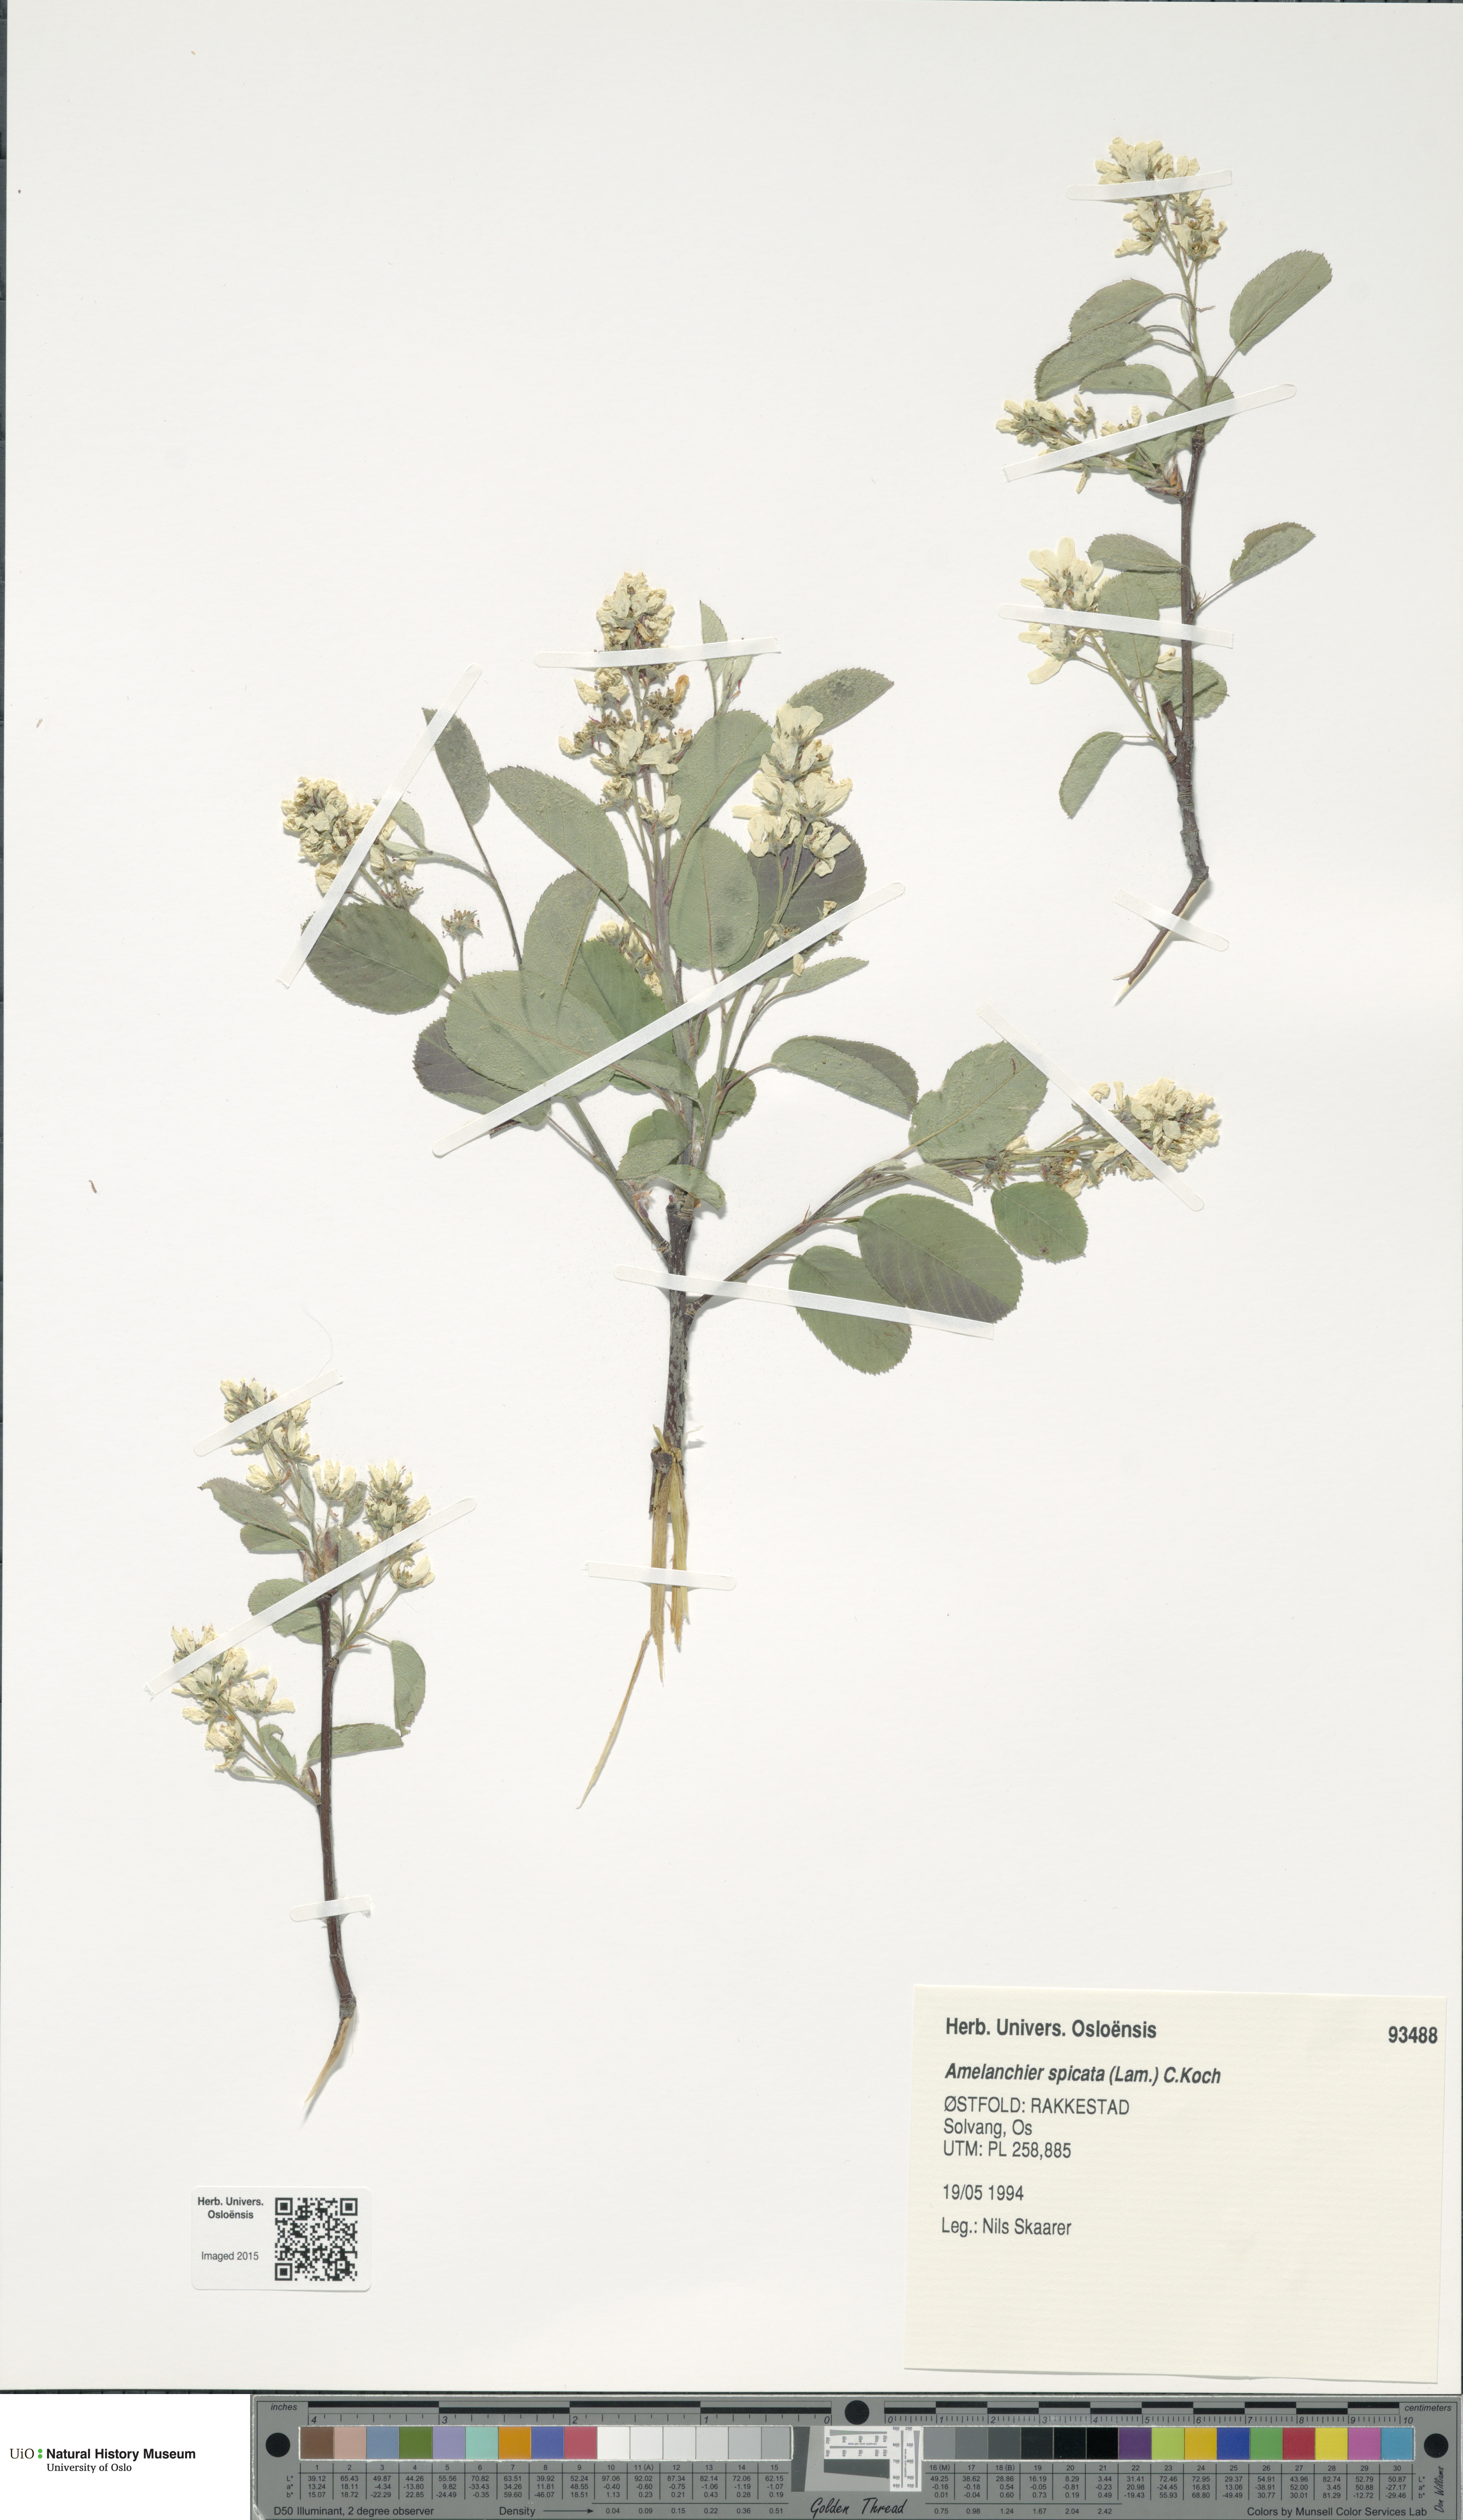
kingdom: Plantae
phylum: Tracheophyta
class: Magnoliopsida
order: Rosales
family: Rosaceae
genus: Amelanchier
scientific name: Amelanchier humilis
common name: Low juneberry
